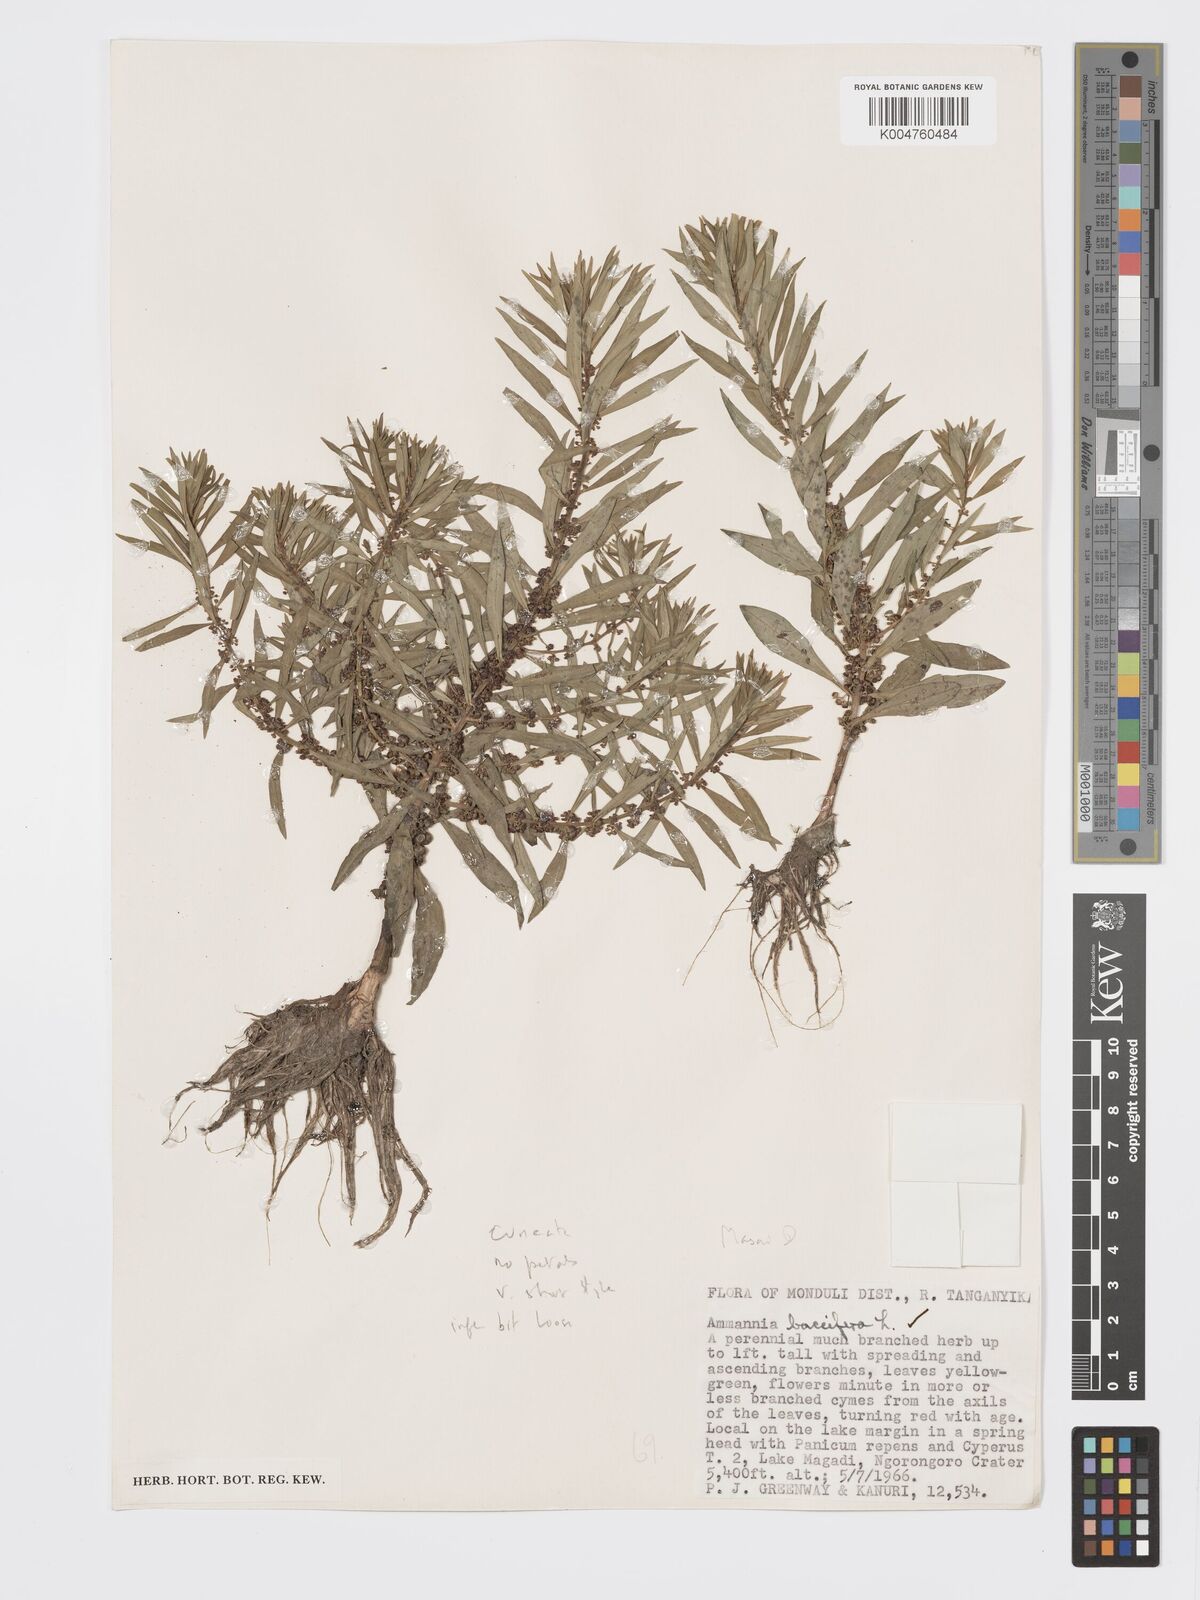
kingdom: Plantae
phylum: Tracheophyta
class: Magnoliopsida
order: Myrtales
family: Lythraceae
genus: Ammannia
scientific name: Ammannia
